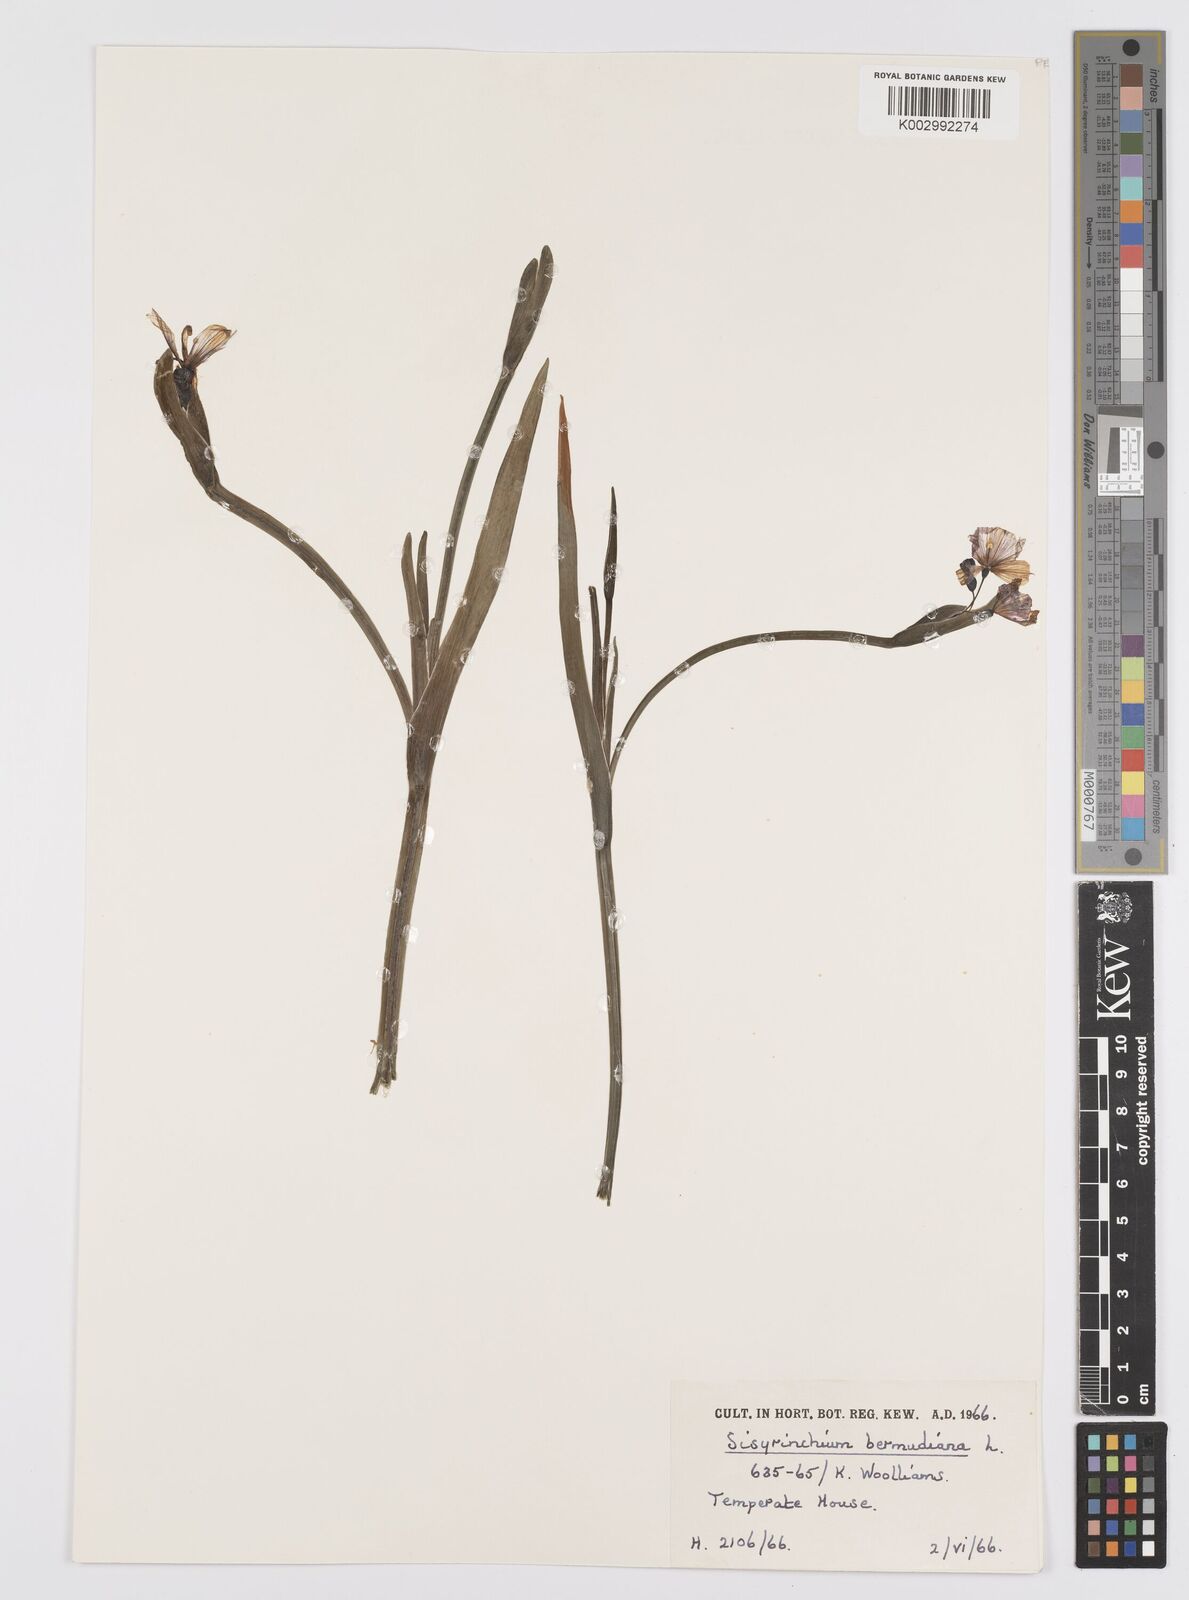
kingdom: Plantae
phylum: Tracheophyta
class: Liliopsida
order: Asparagales
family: Iridaceae
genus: Sisyrinchium
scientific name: Sisyrinchium bermudiana
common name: Blue-eyed-grass
